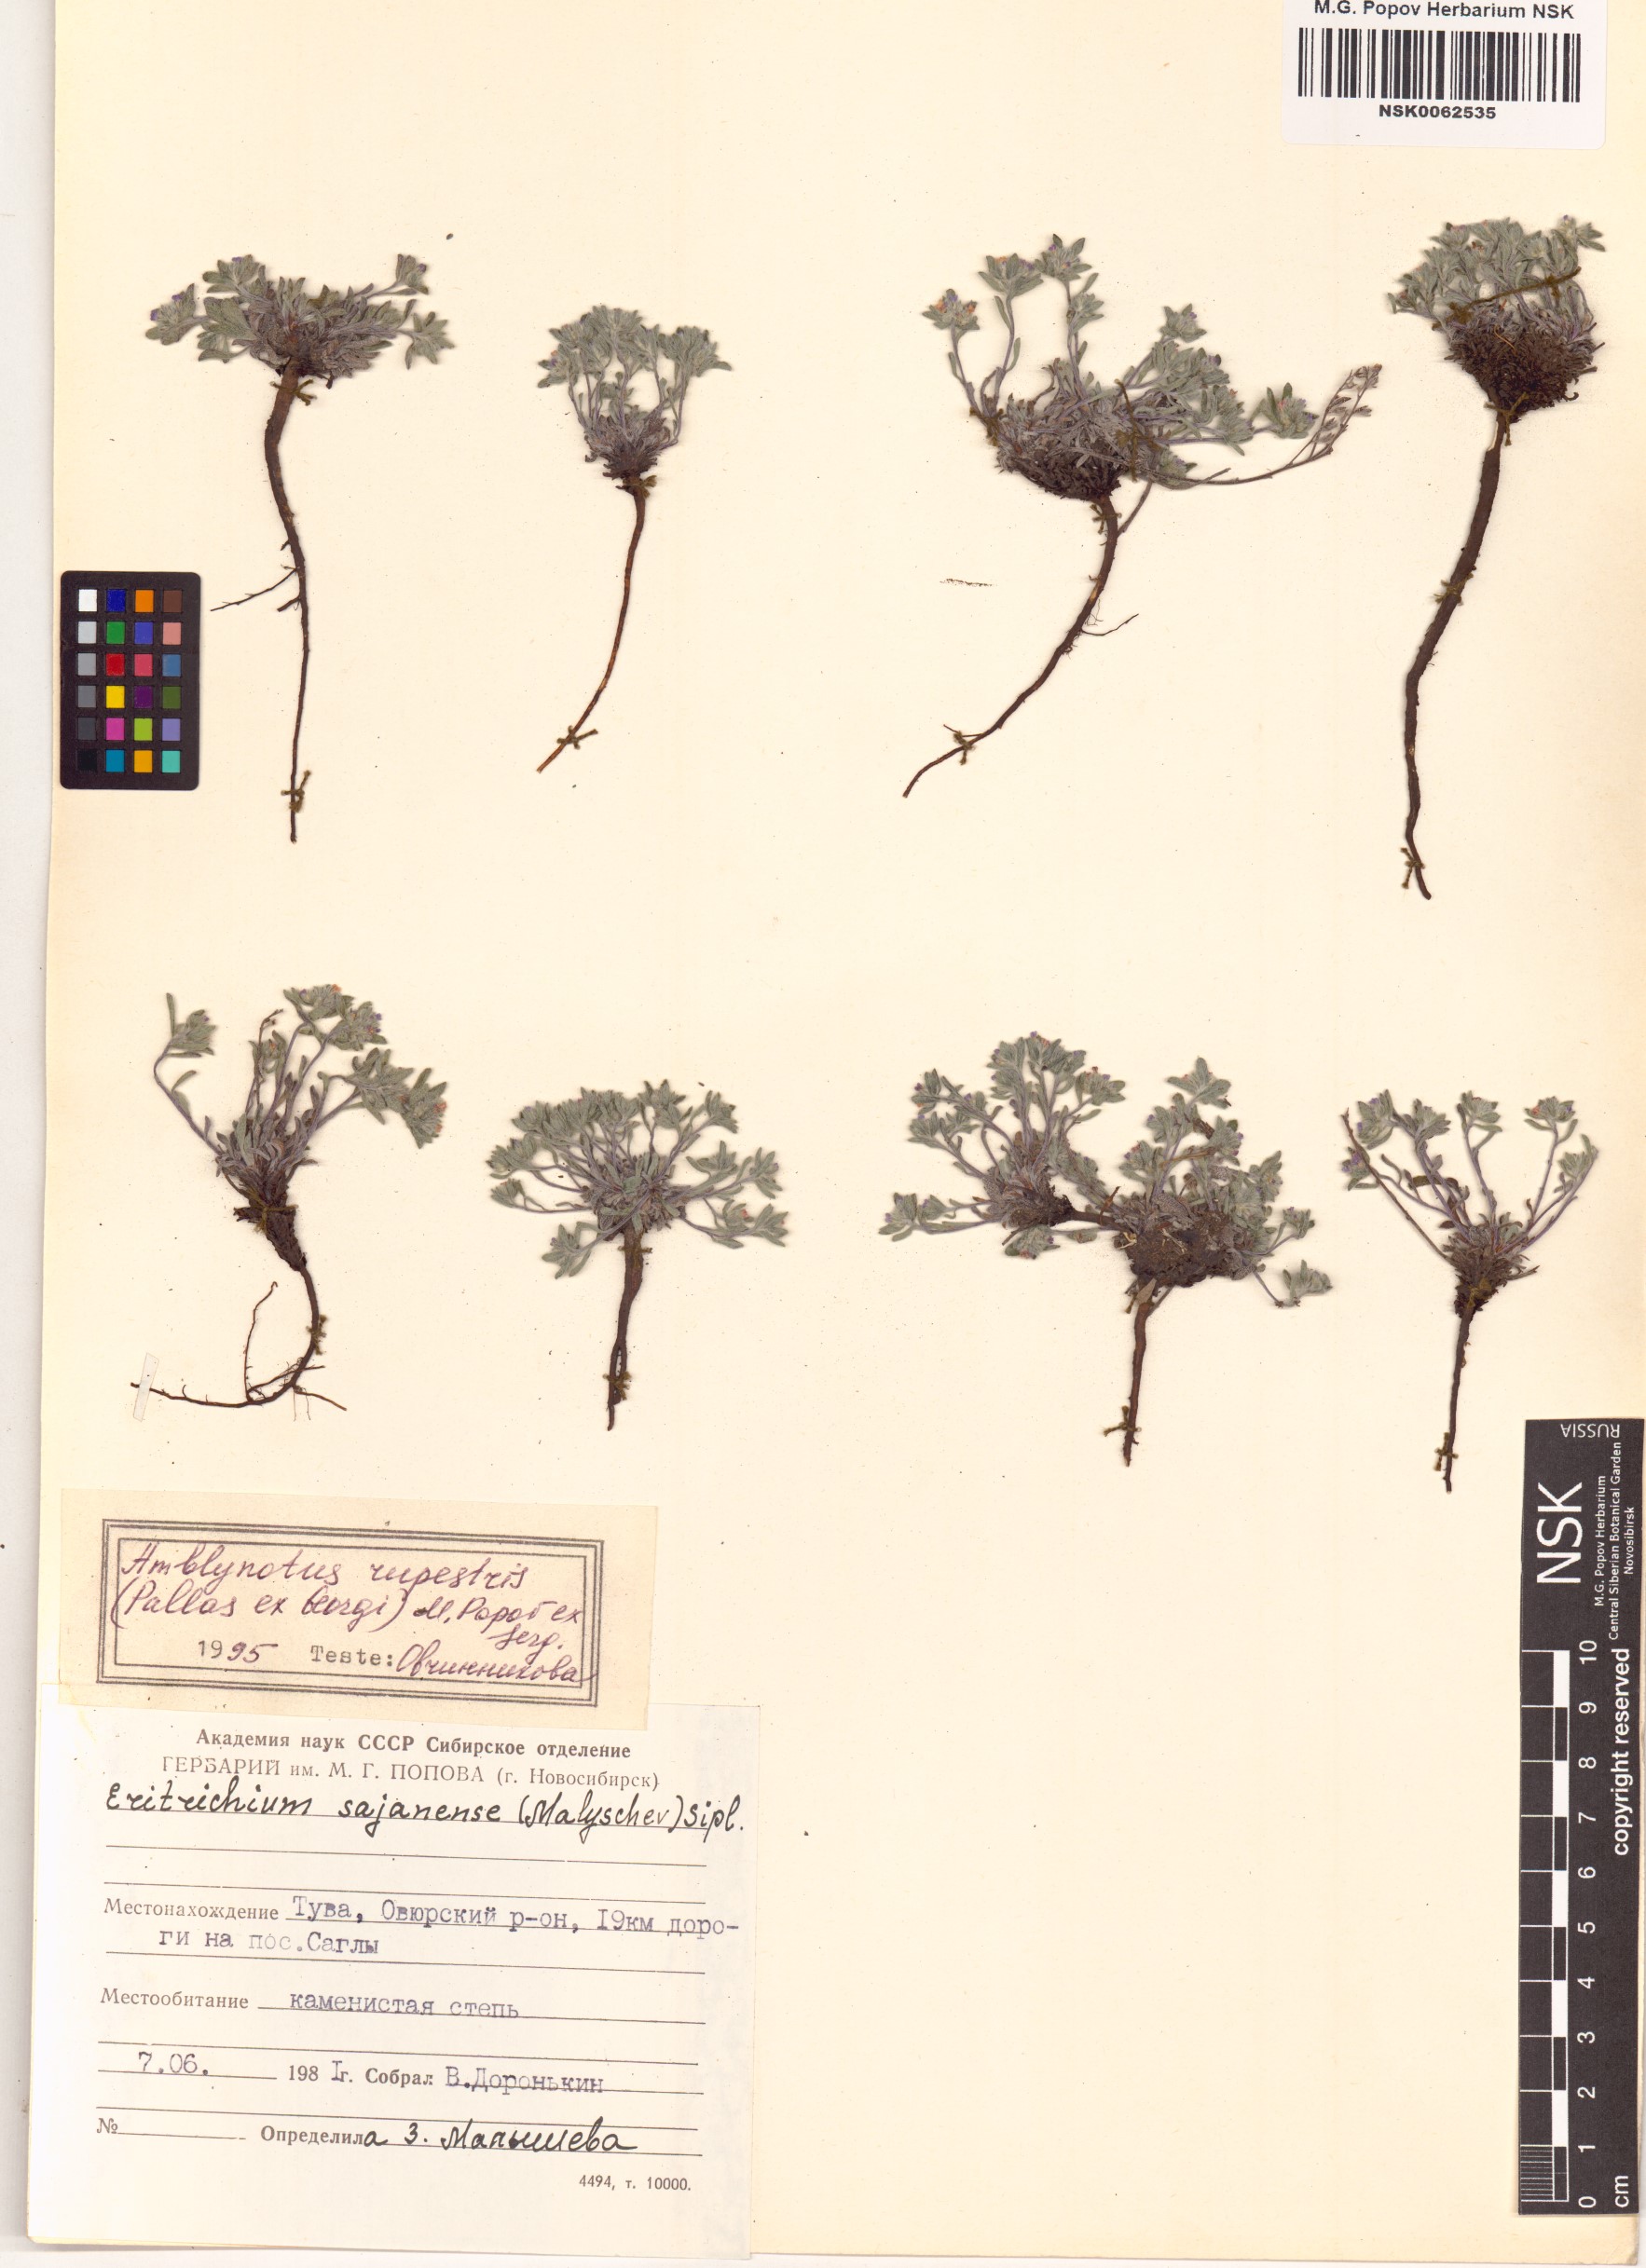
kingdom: Plantae
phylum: Tracheophyta
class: Magnoliopsida
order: Boraginales
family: Boraginaceae
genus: Eritrichium
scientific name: Eritrichium rupestre
